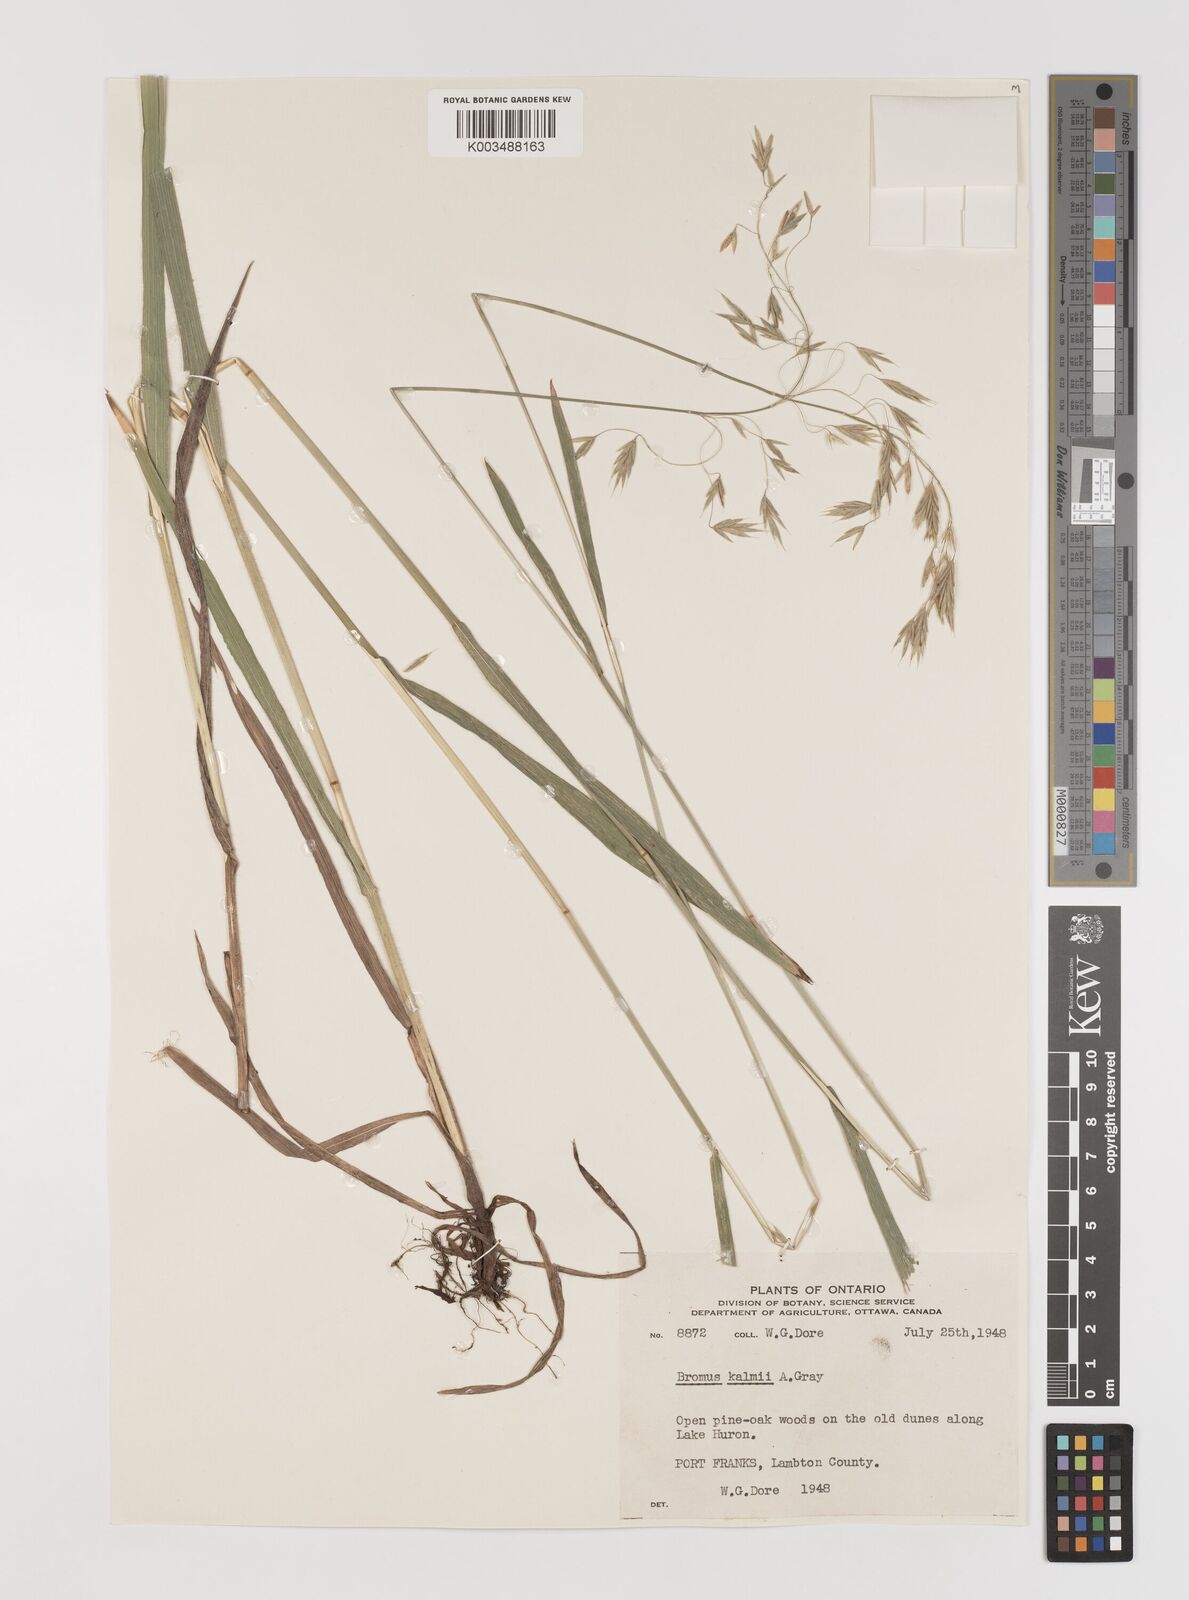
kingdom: Plantae
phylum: Tracheophyta
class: Liliopsida
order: Poales
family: Poaceae
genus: Bromus
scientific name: Bromus kalmii
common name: Kalm brome
